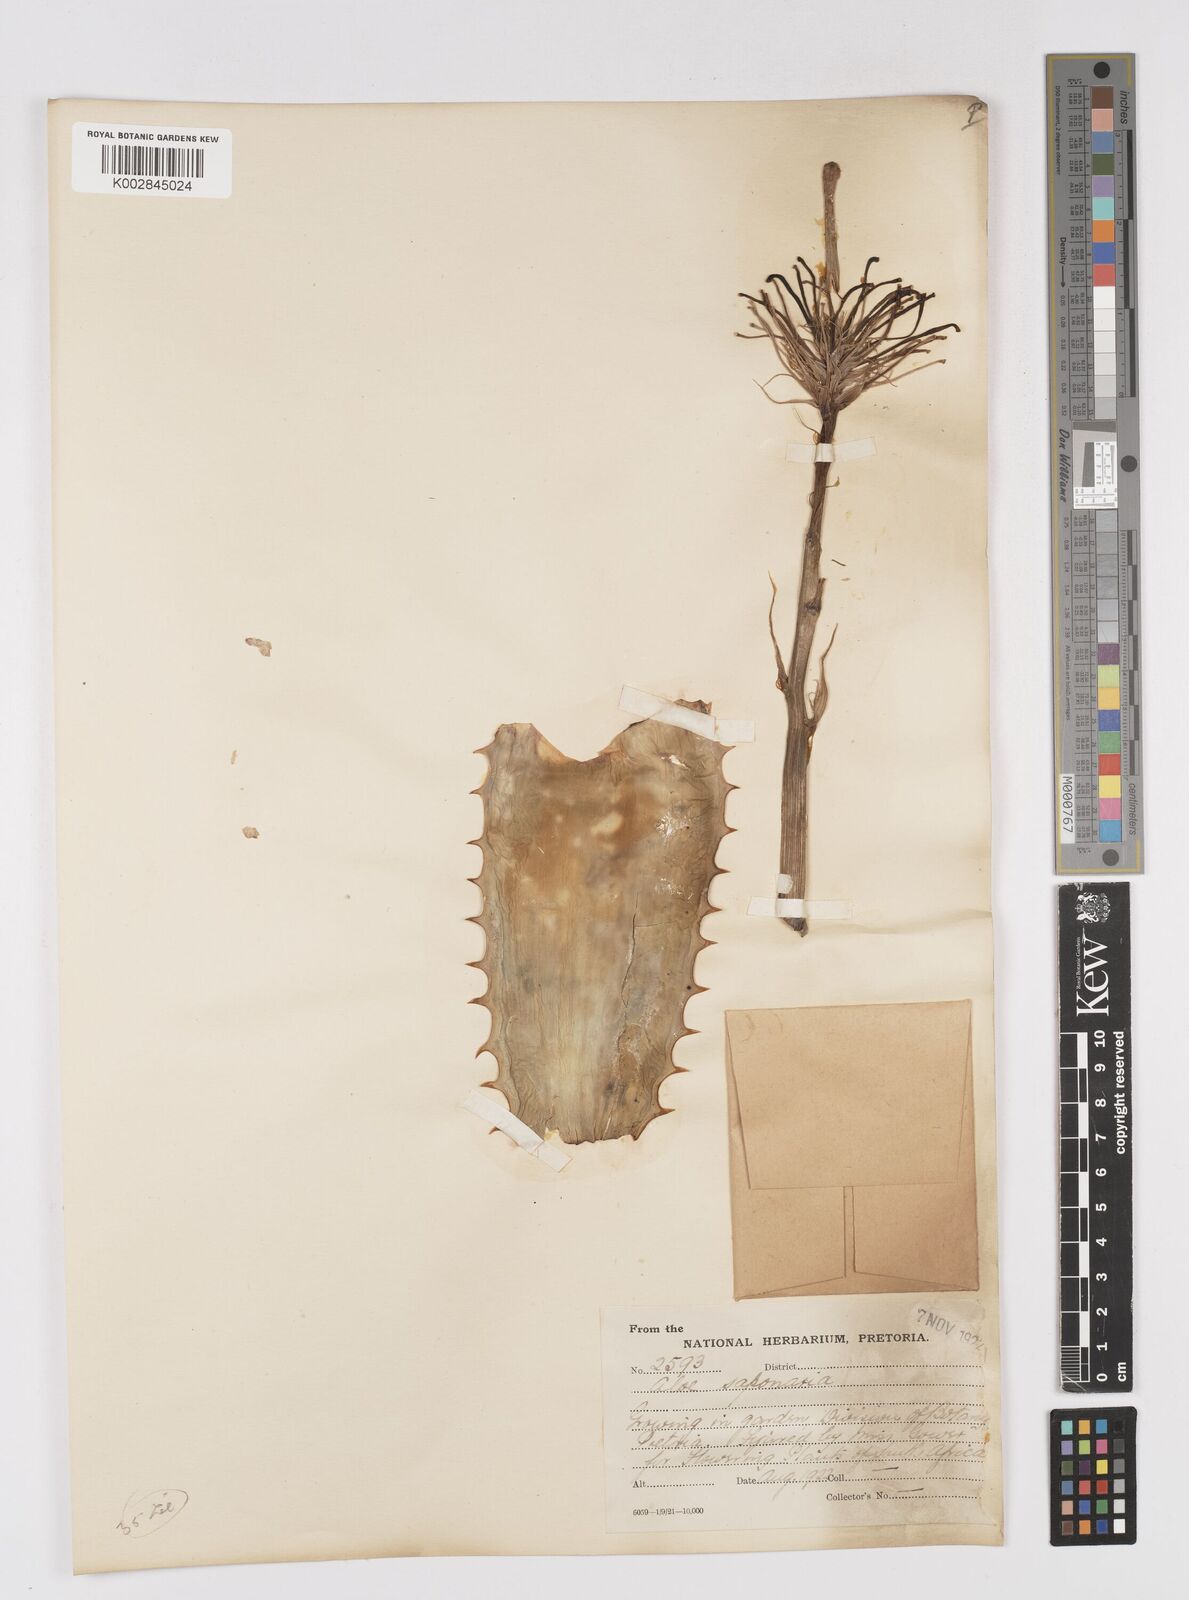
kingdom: Plantae
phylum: Tracheophyta
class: Liliopsida
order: Asparagales
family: Asphodelaceae
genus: Aloe
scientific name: Aloe microstigma
